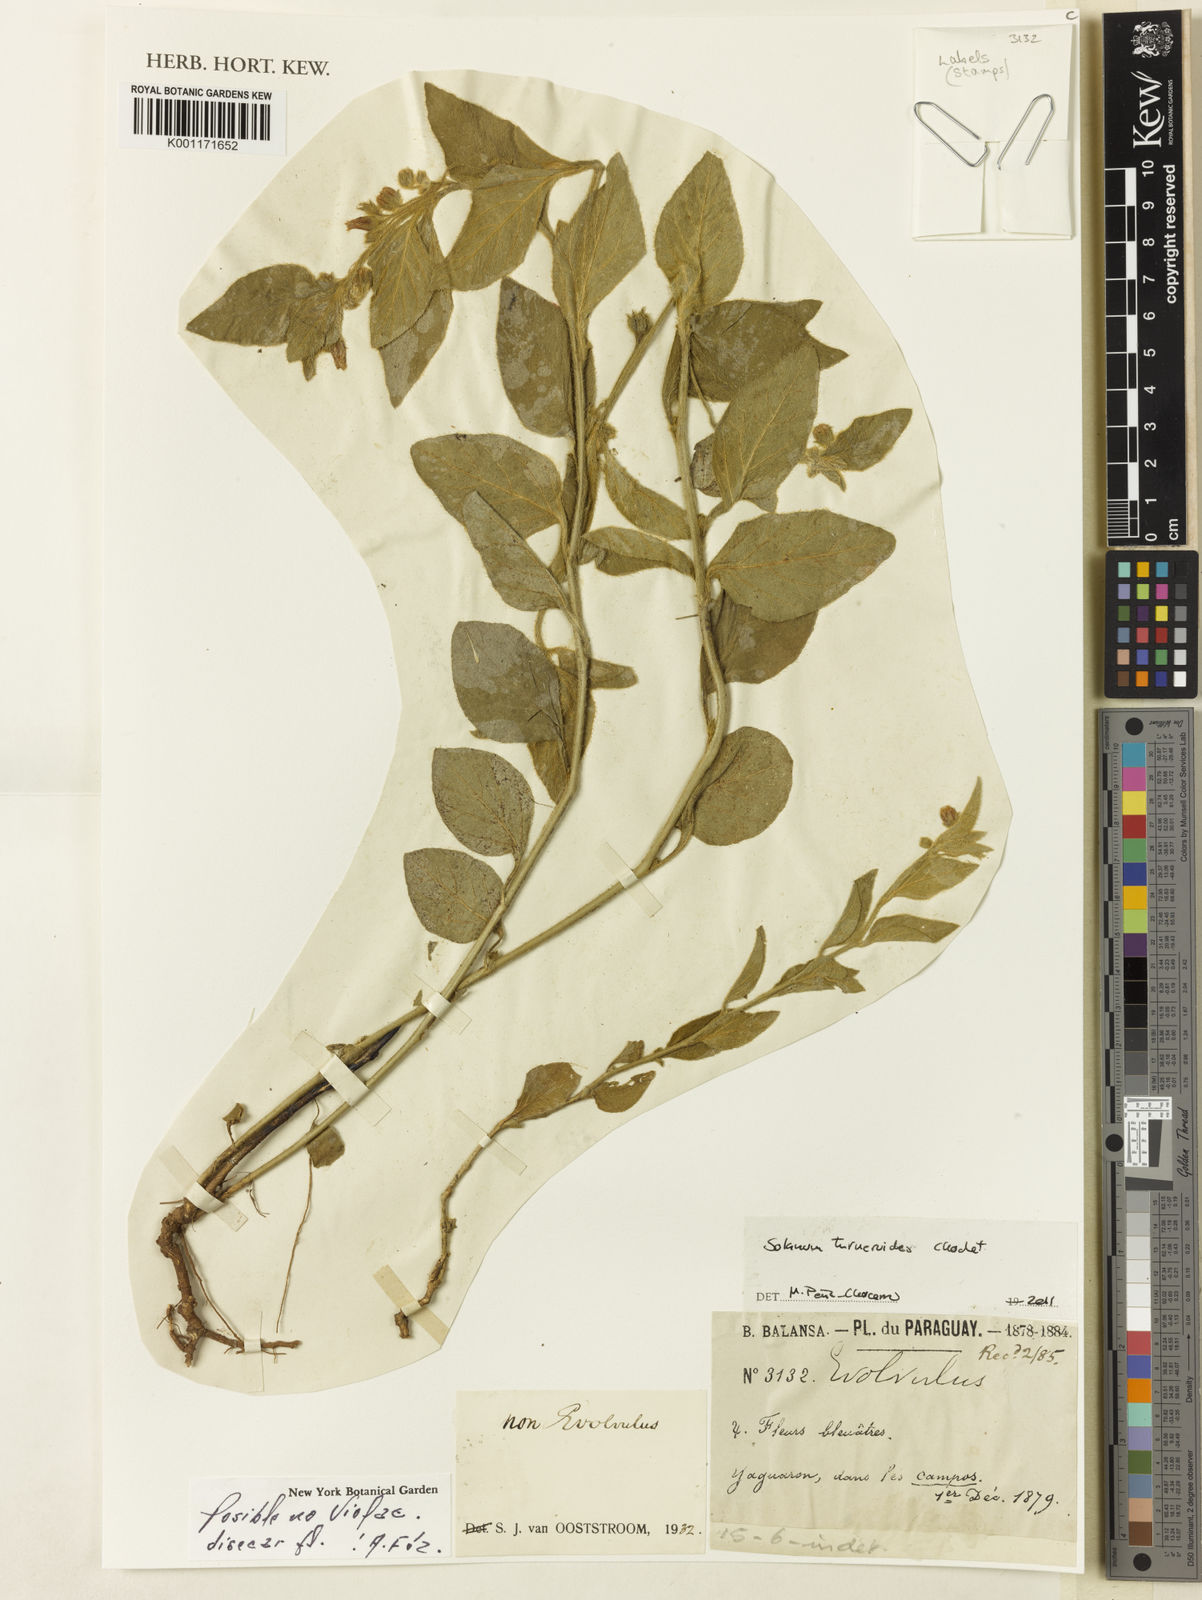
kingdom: Plantae
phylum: Tracheophyta
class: Magnoliopsida
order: Solanales
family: Solanaceae
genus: Solanum
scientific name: Solanum turneroides
